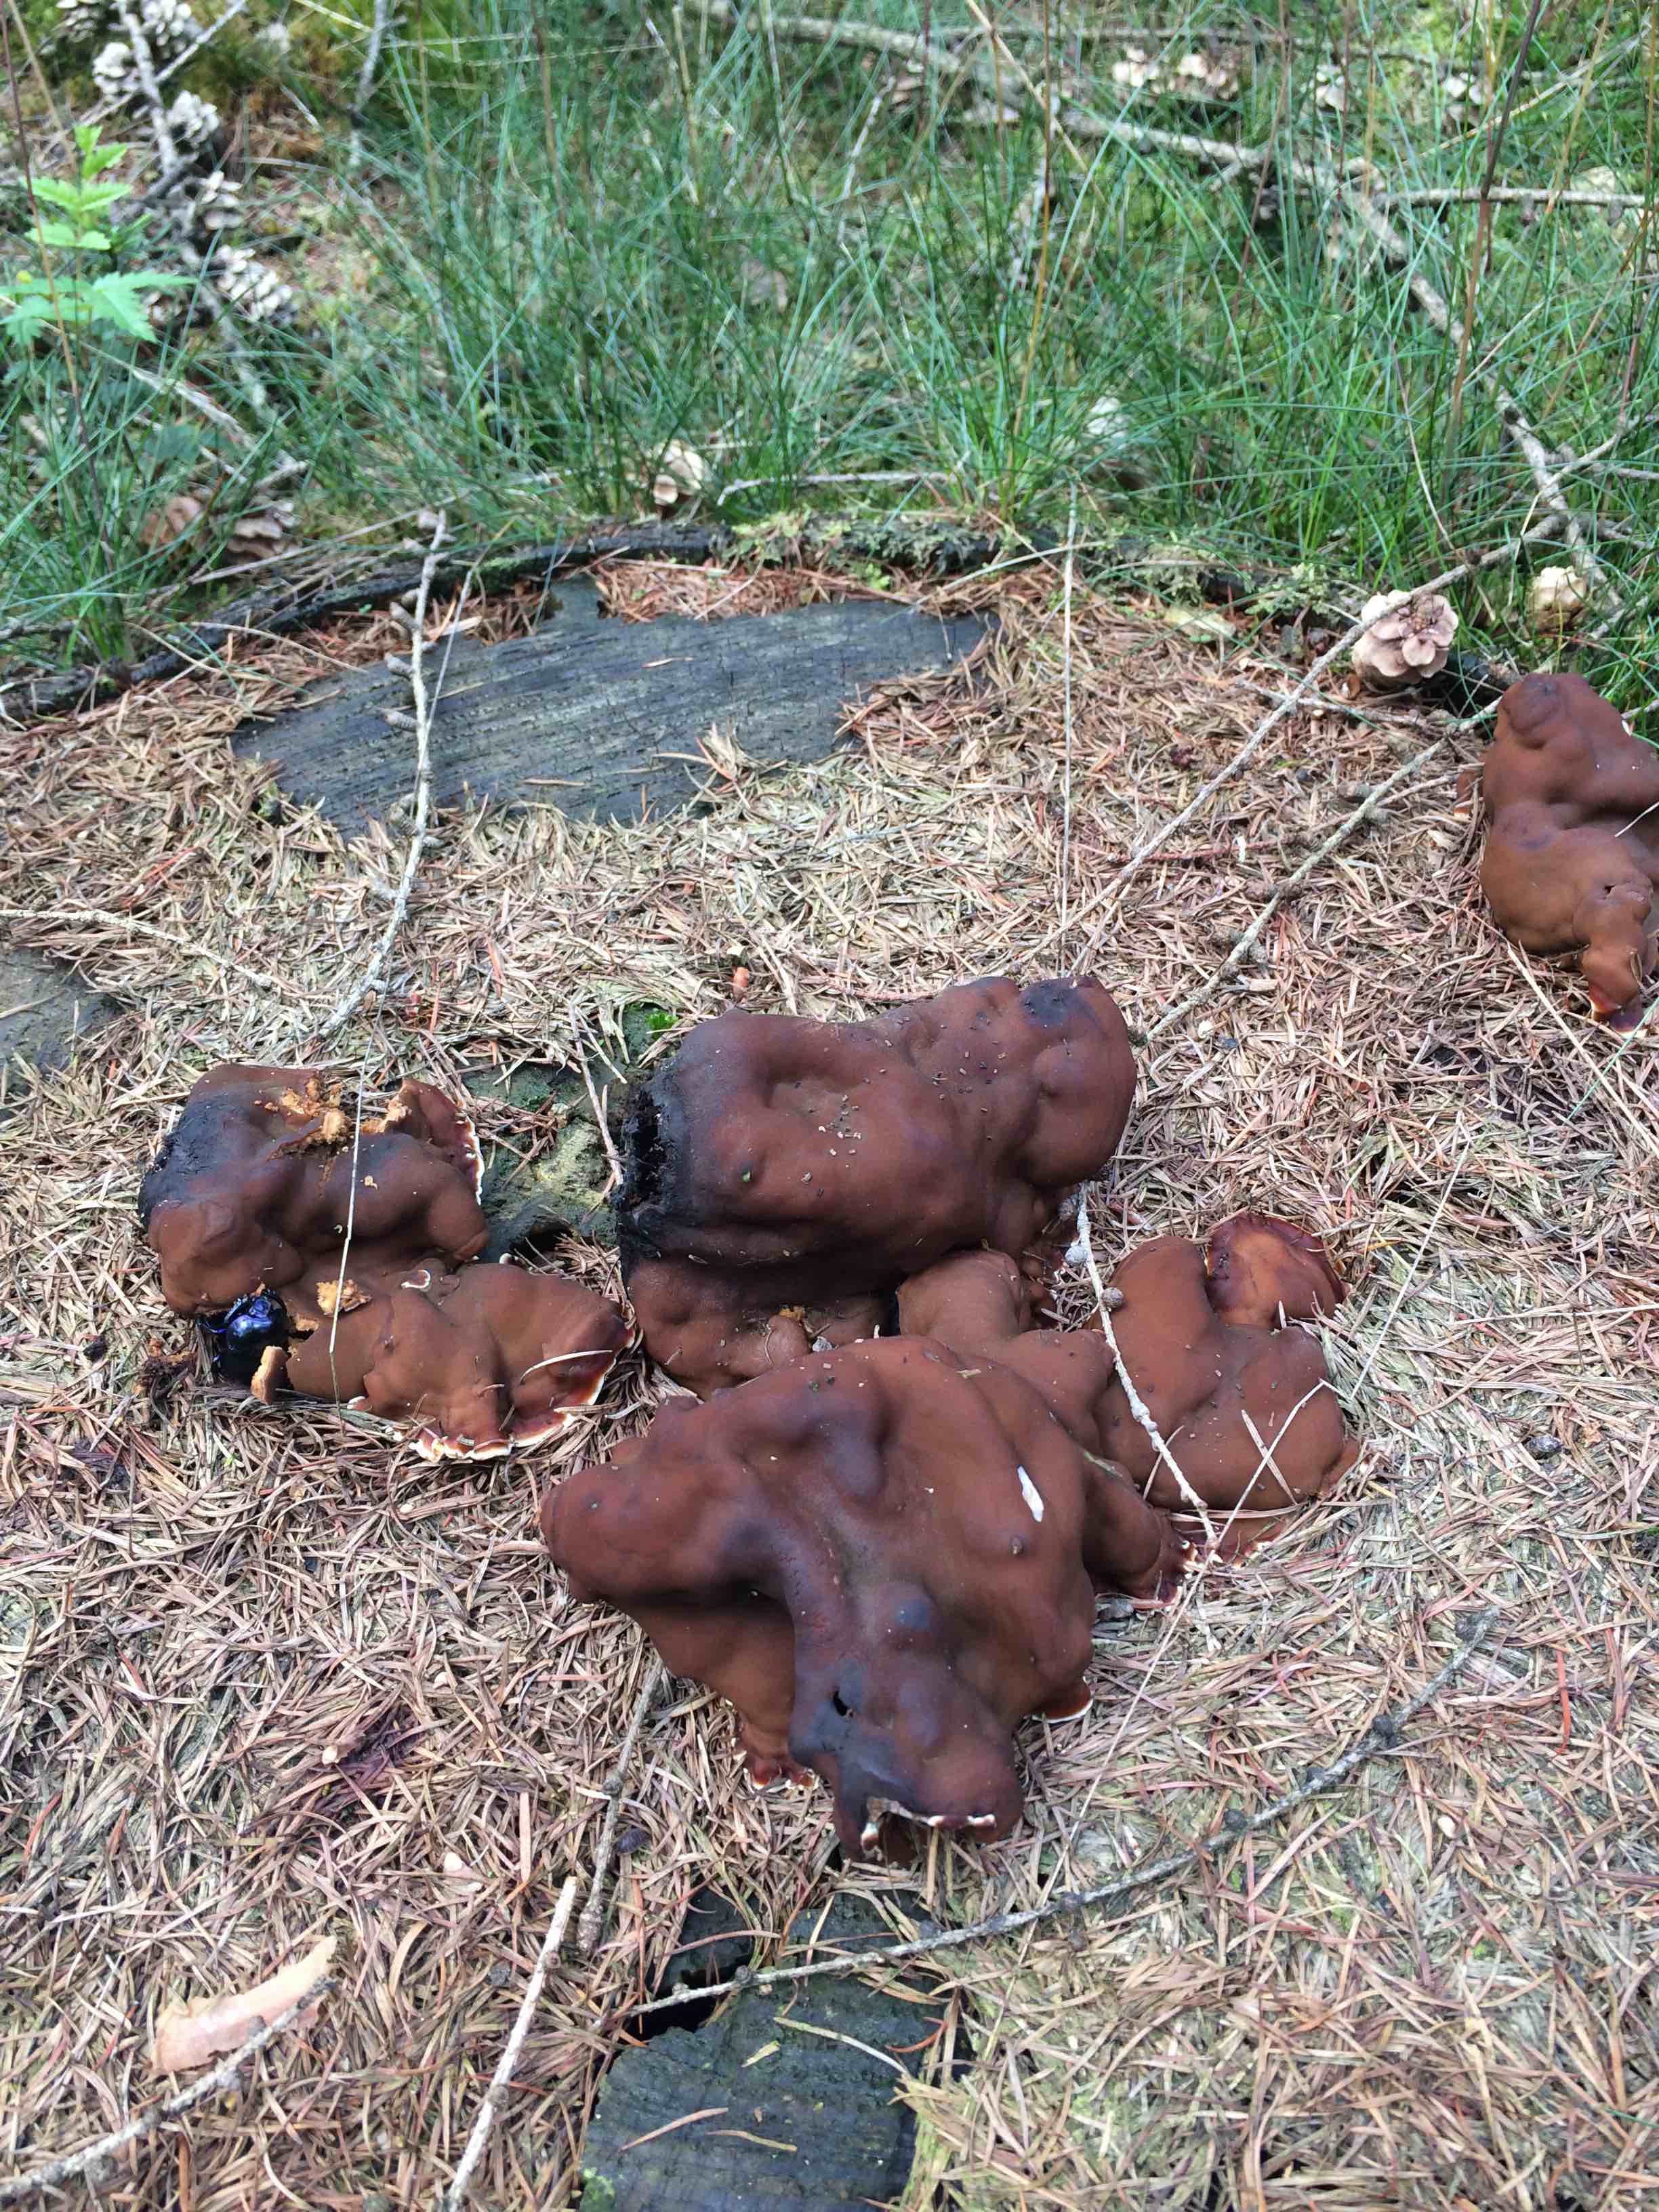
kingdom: Fungi
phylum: Ascomycota
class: Pezizomycetes
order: Pezizales
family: Rhizinaceae
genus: Rhizina
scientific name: Rhizina undulata
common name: rodmorkel
